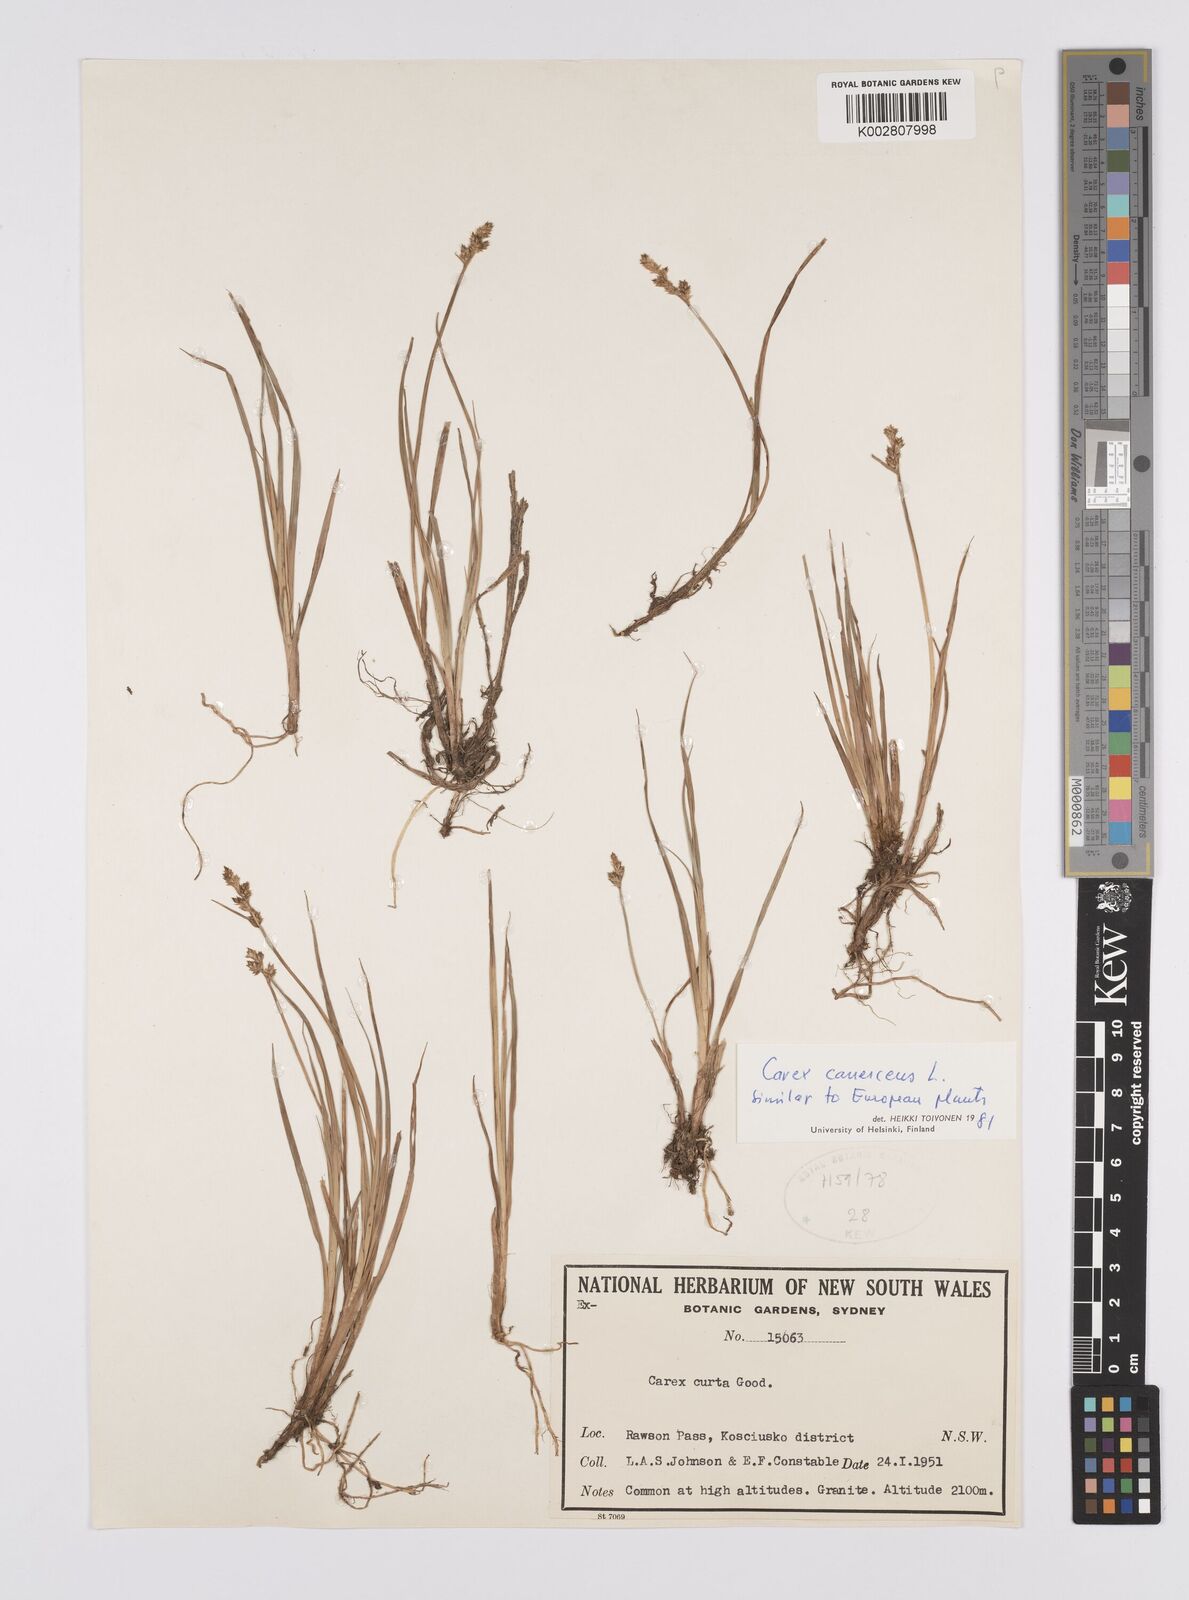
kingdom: Plantae
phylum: Tracheophyta
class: Liliopsida
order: Poales
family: Cyperaceae
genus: Carex
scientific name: Carex curta
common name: White sedge
